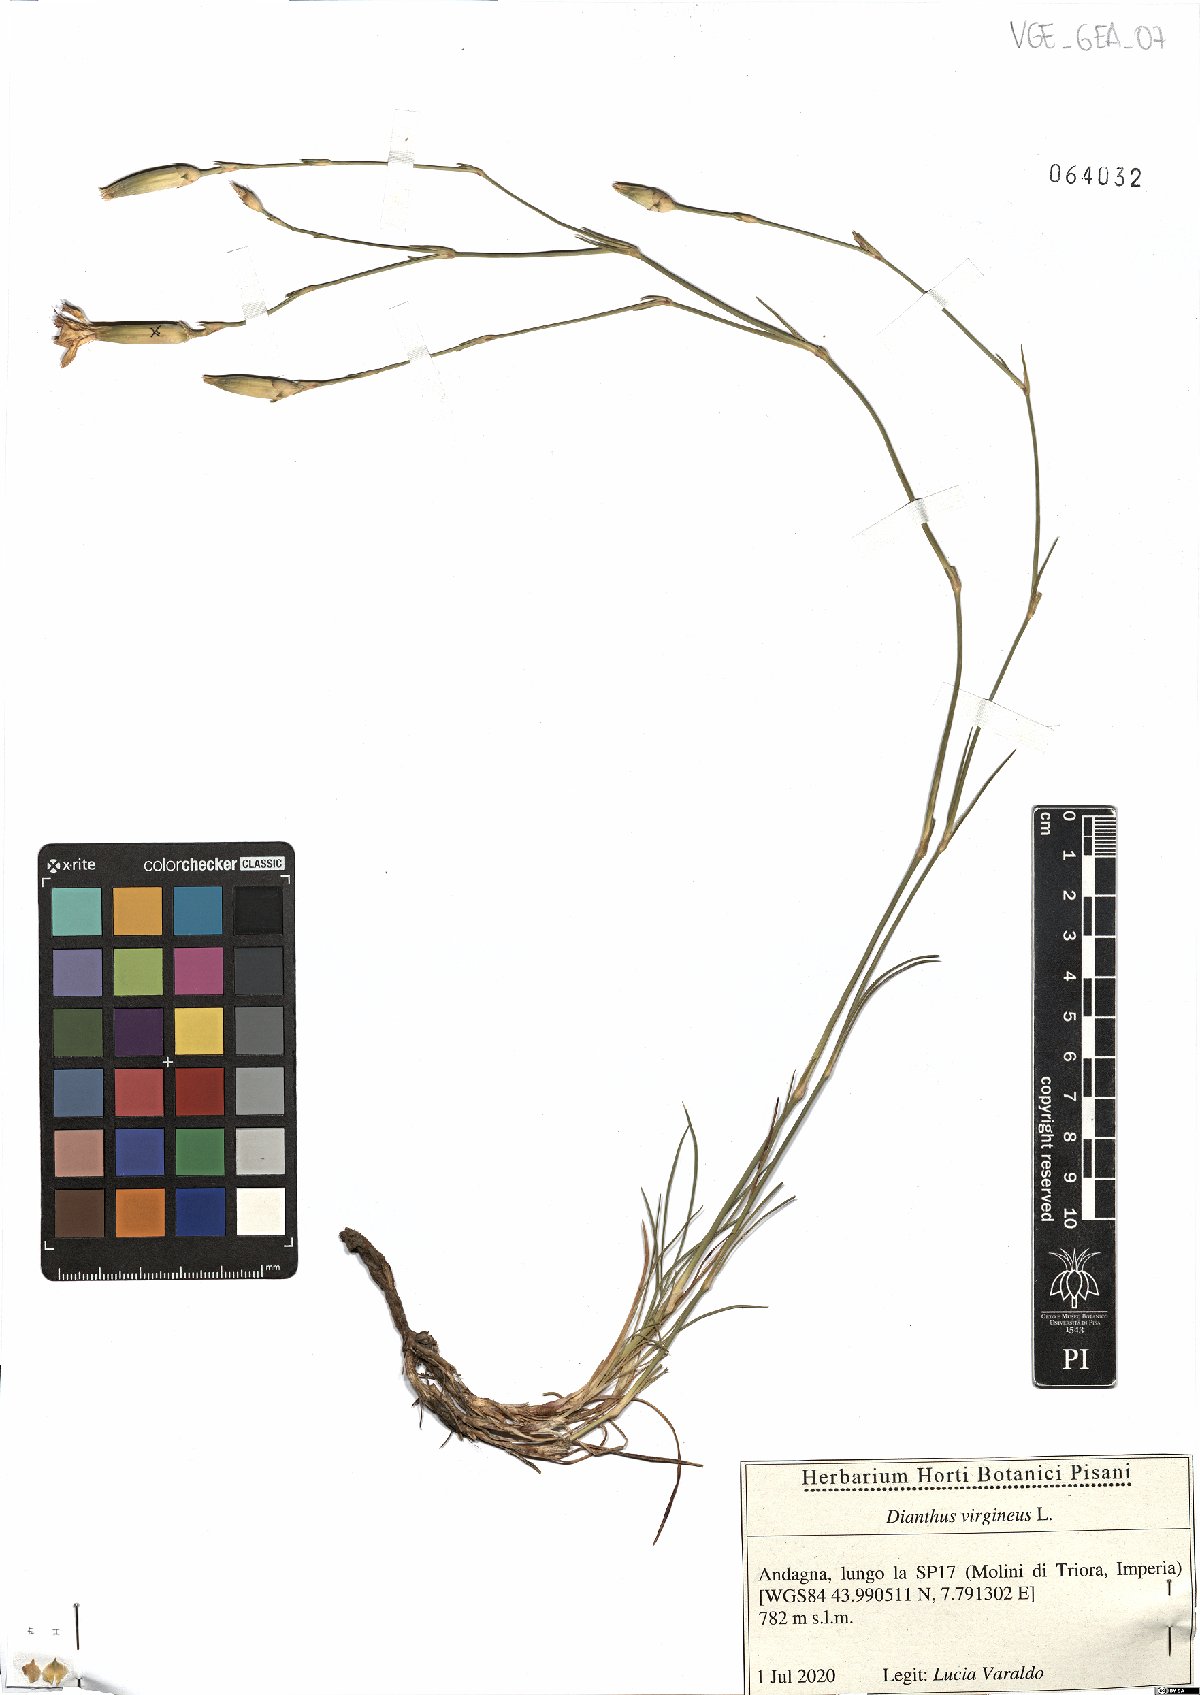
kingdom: Plantae
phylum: Tracheophyta
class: Magnoliopsida
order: Caryophyllales
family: Caryophyllaceae
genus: Dianthus
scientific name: Dianthus virgineus
